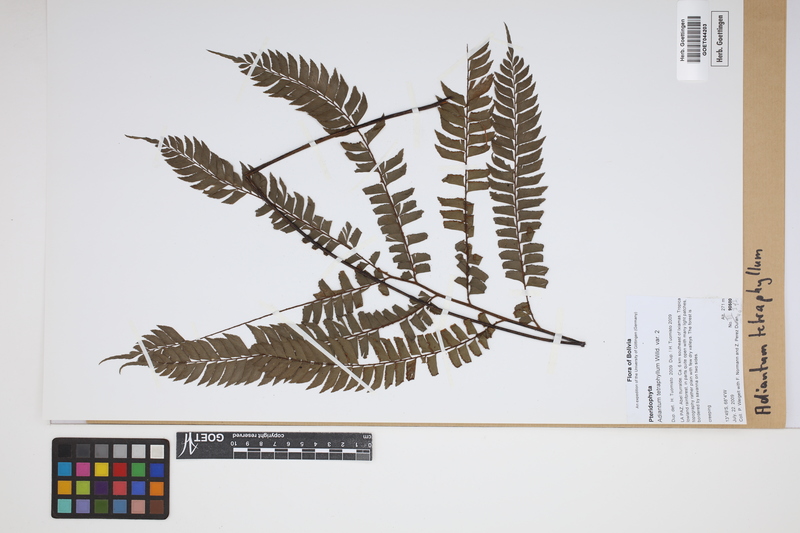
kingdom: Plantae
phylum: Tracheophyta
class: Polypodiopsida
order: Polypodiales
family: Pteridaceae
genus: Adiantum
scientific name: Adiantum tetraphyllum
